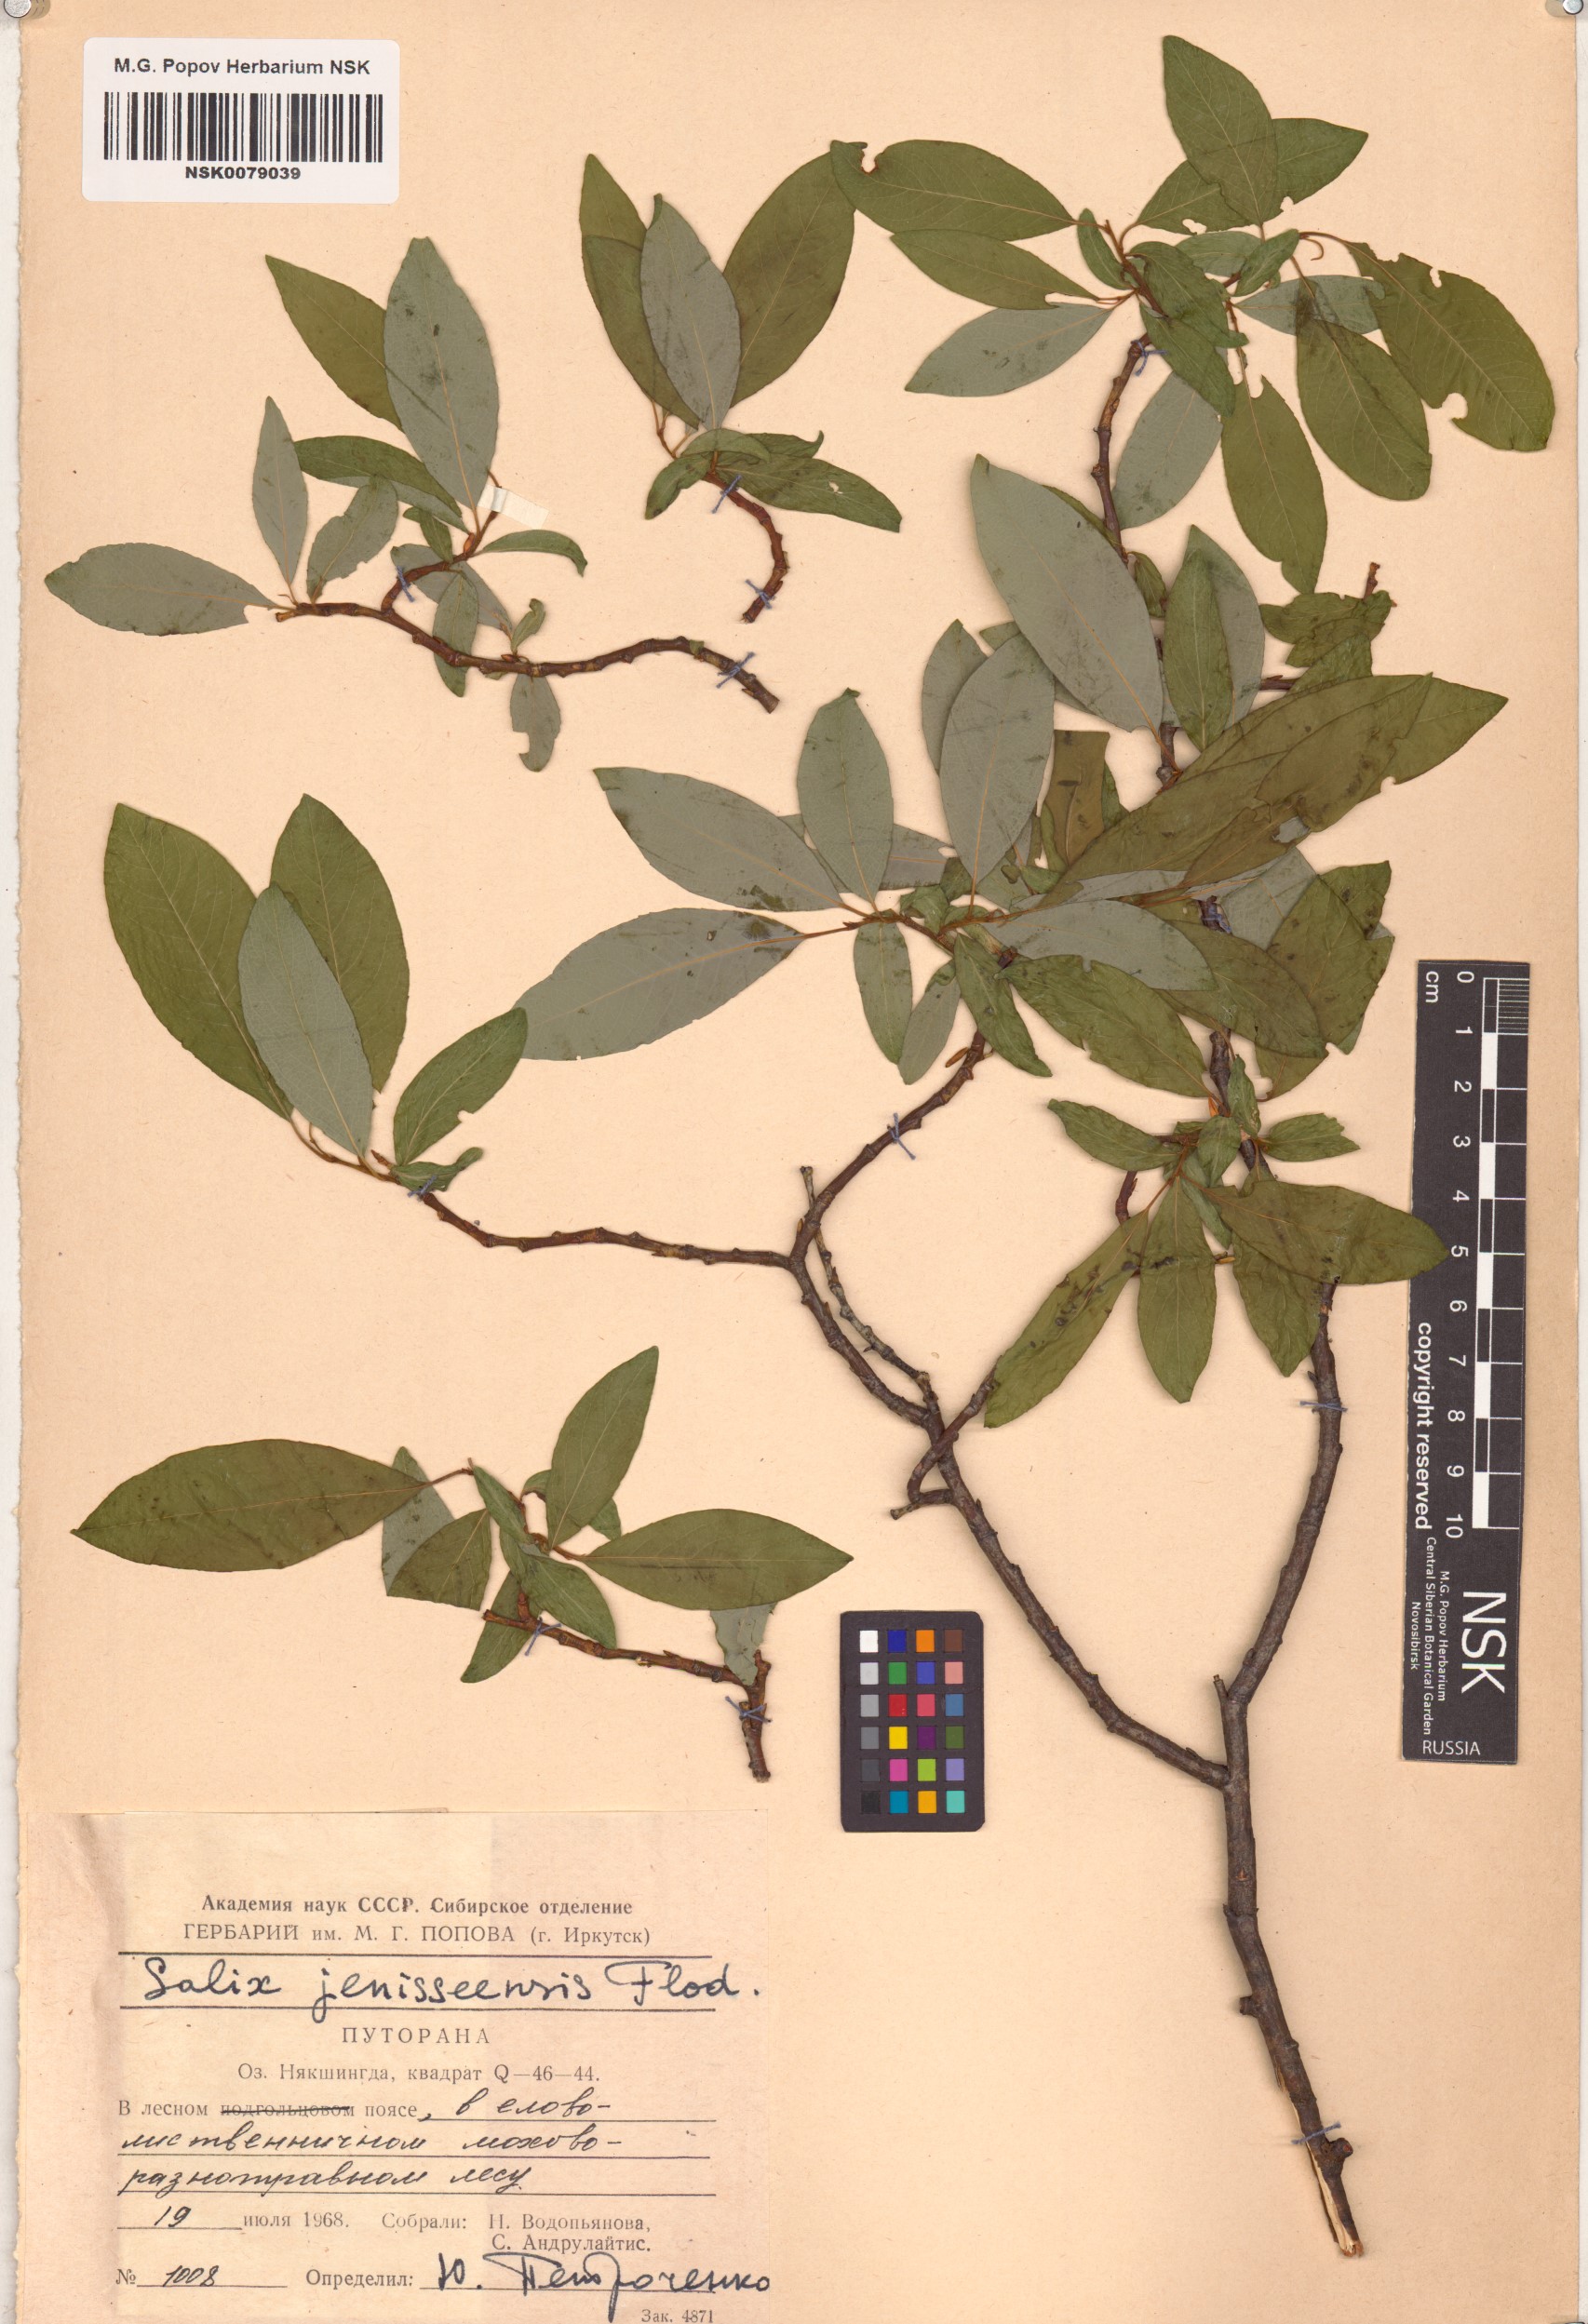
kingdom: Plantae
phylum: Tracheophyta
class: Magnoliopsida
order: Malpighiales
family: Salicaceae
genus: Salix
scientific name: Salix jenisseensis
